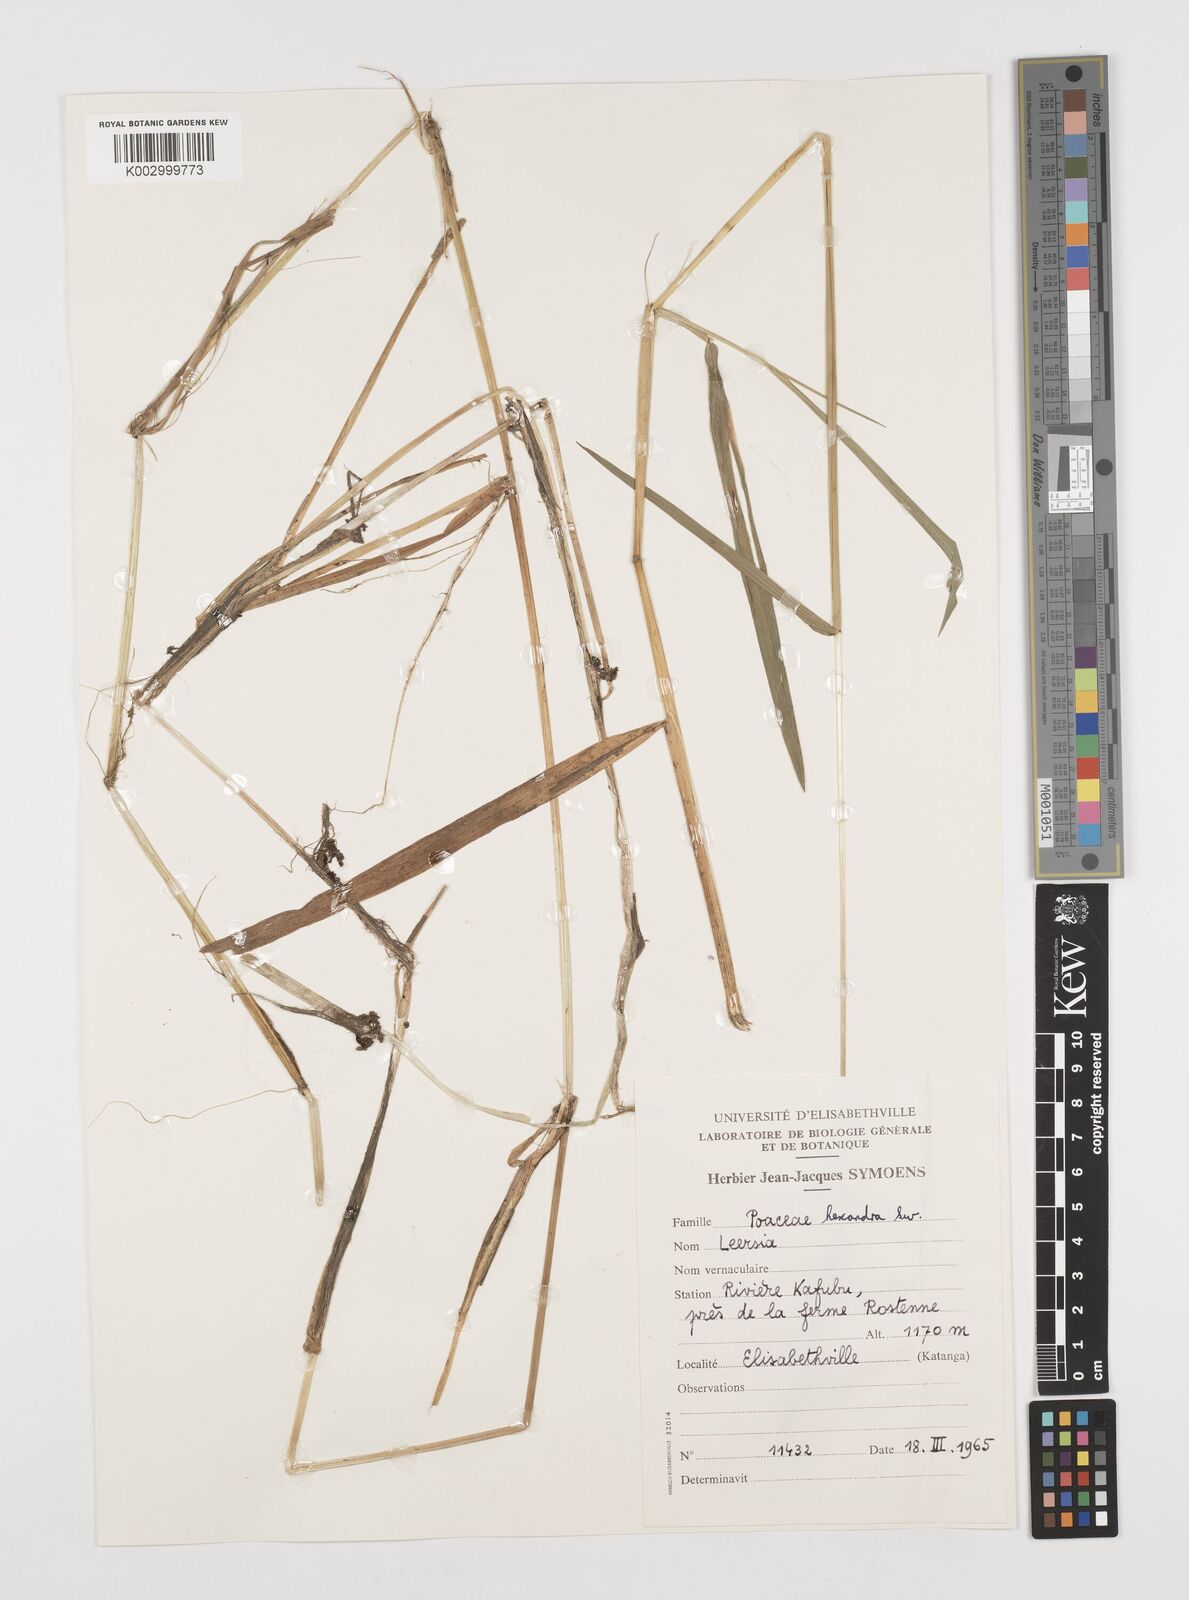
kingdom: Plantae
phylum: Tracheophyta
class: Liliopsida
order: Poales
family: Poaceae
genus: Leersia
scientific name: Leersia hexandra
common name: Southern cut grass
